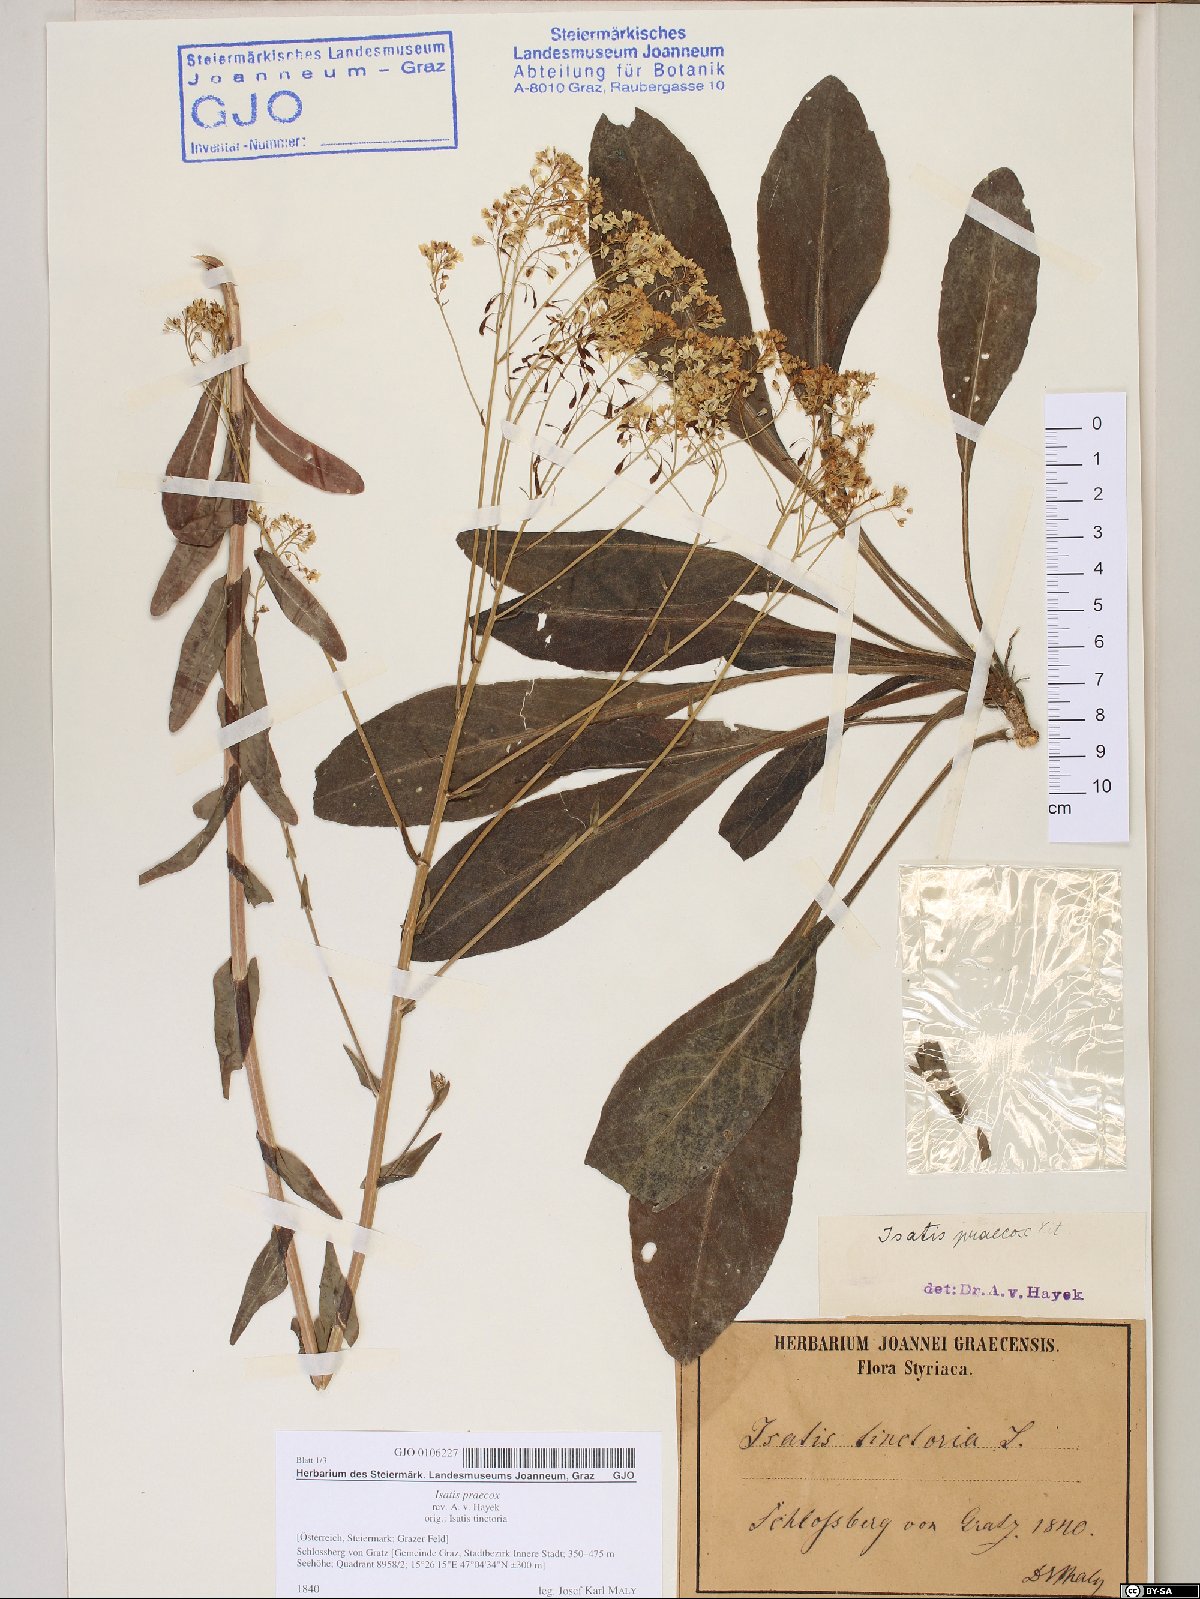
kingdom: Plantae
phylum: Tracheophyta
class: Magnoliopsida
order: Brassicales
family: Brassicaceae
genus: Isatis
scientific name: Isatis tinctoria
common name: Woad
